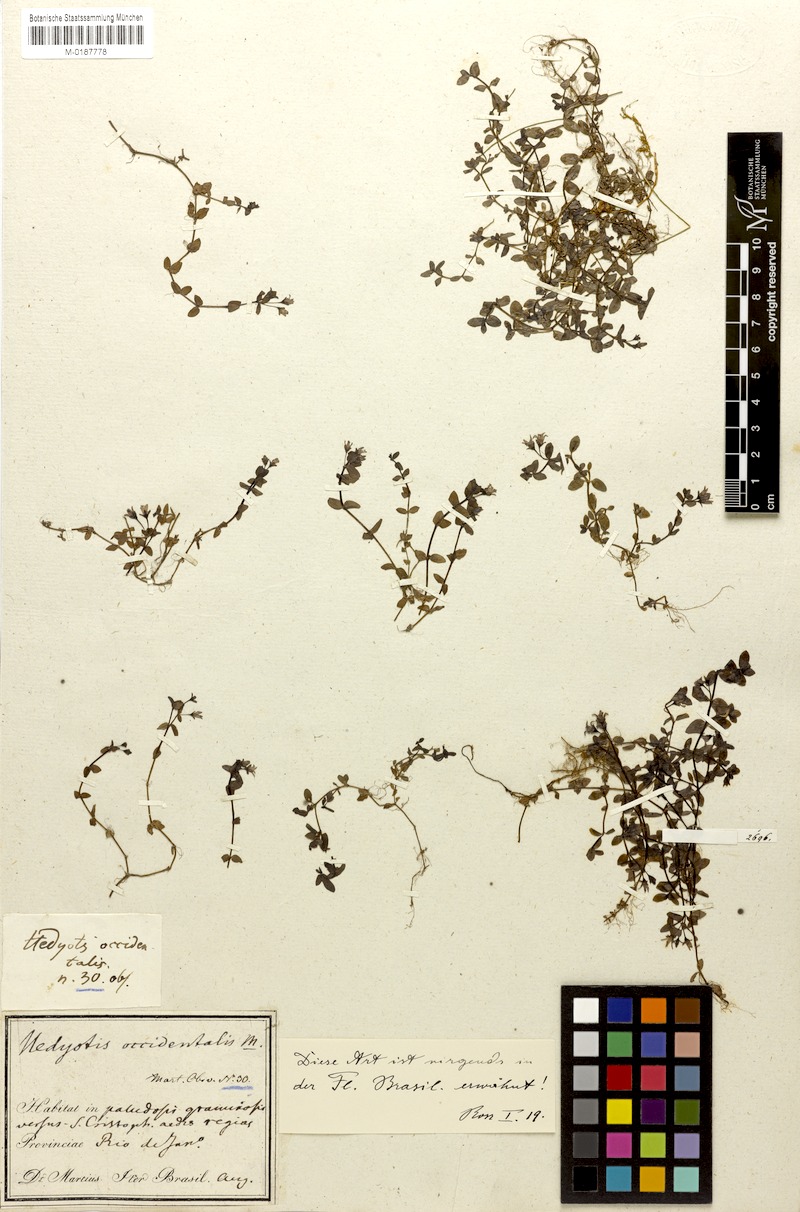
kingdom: Plantae
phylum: Tracheophyta
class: Magnoliopsida
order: Gentianales
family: Rubiaceae
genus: Houstonia
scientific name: Houstonia
